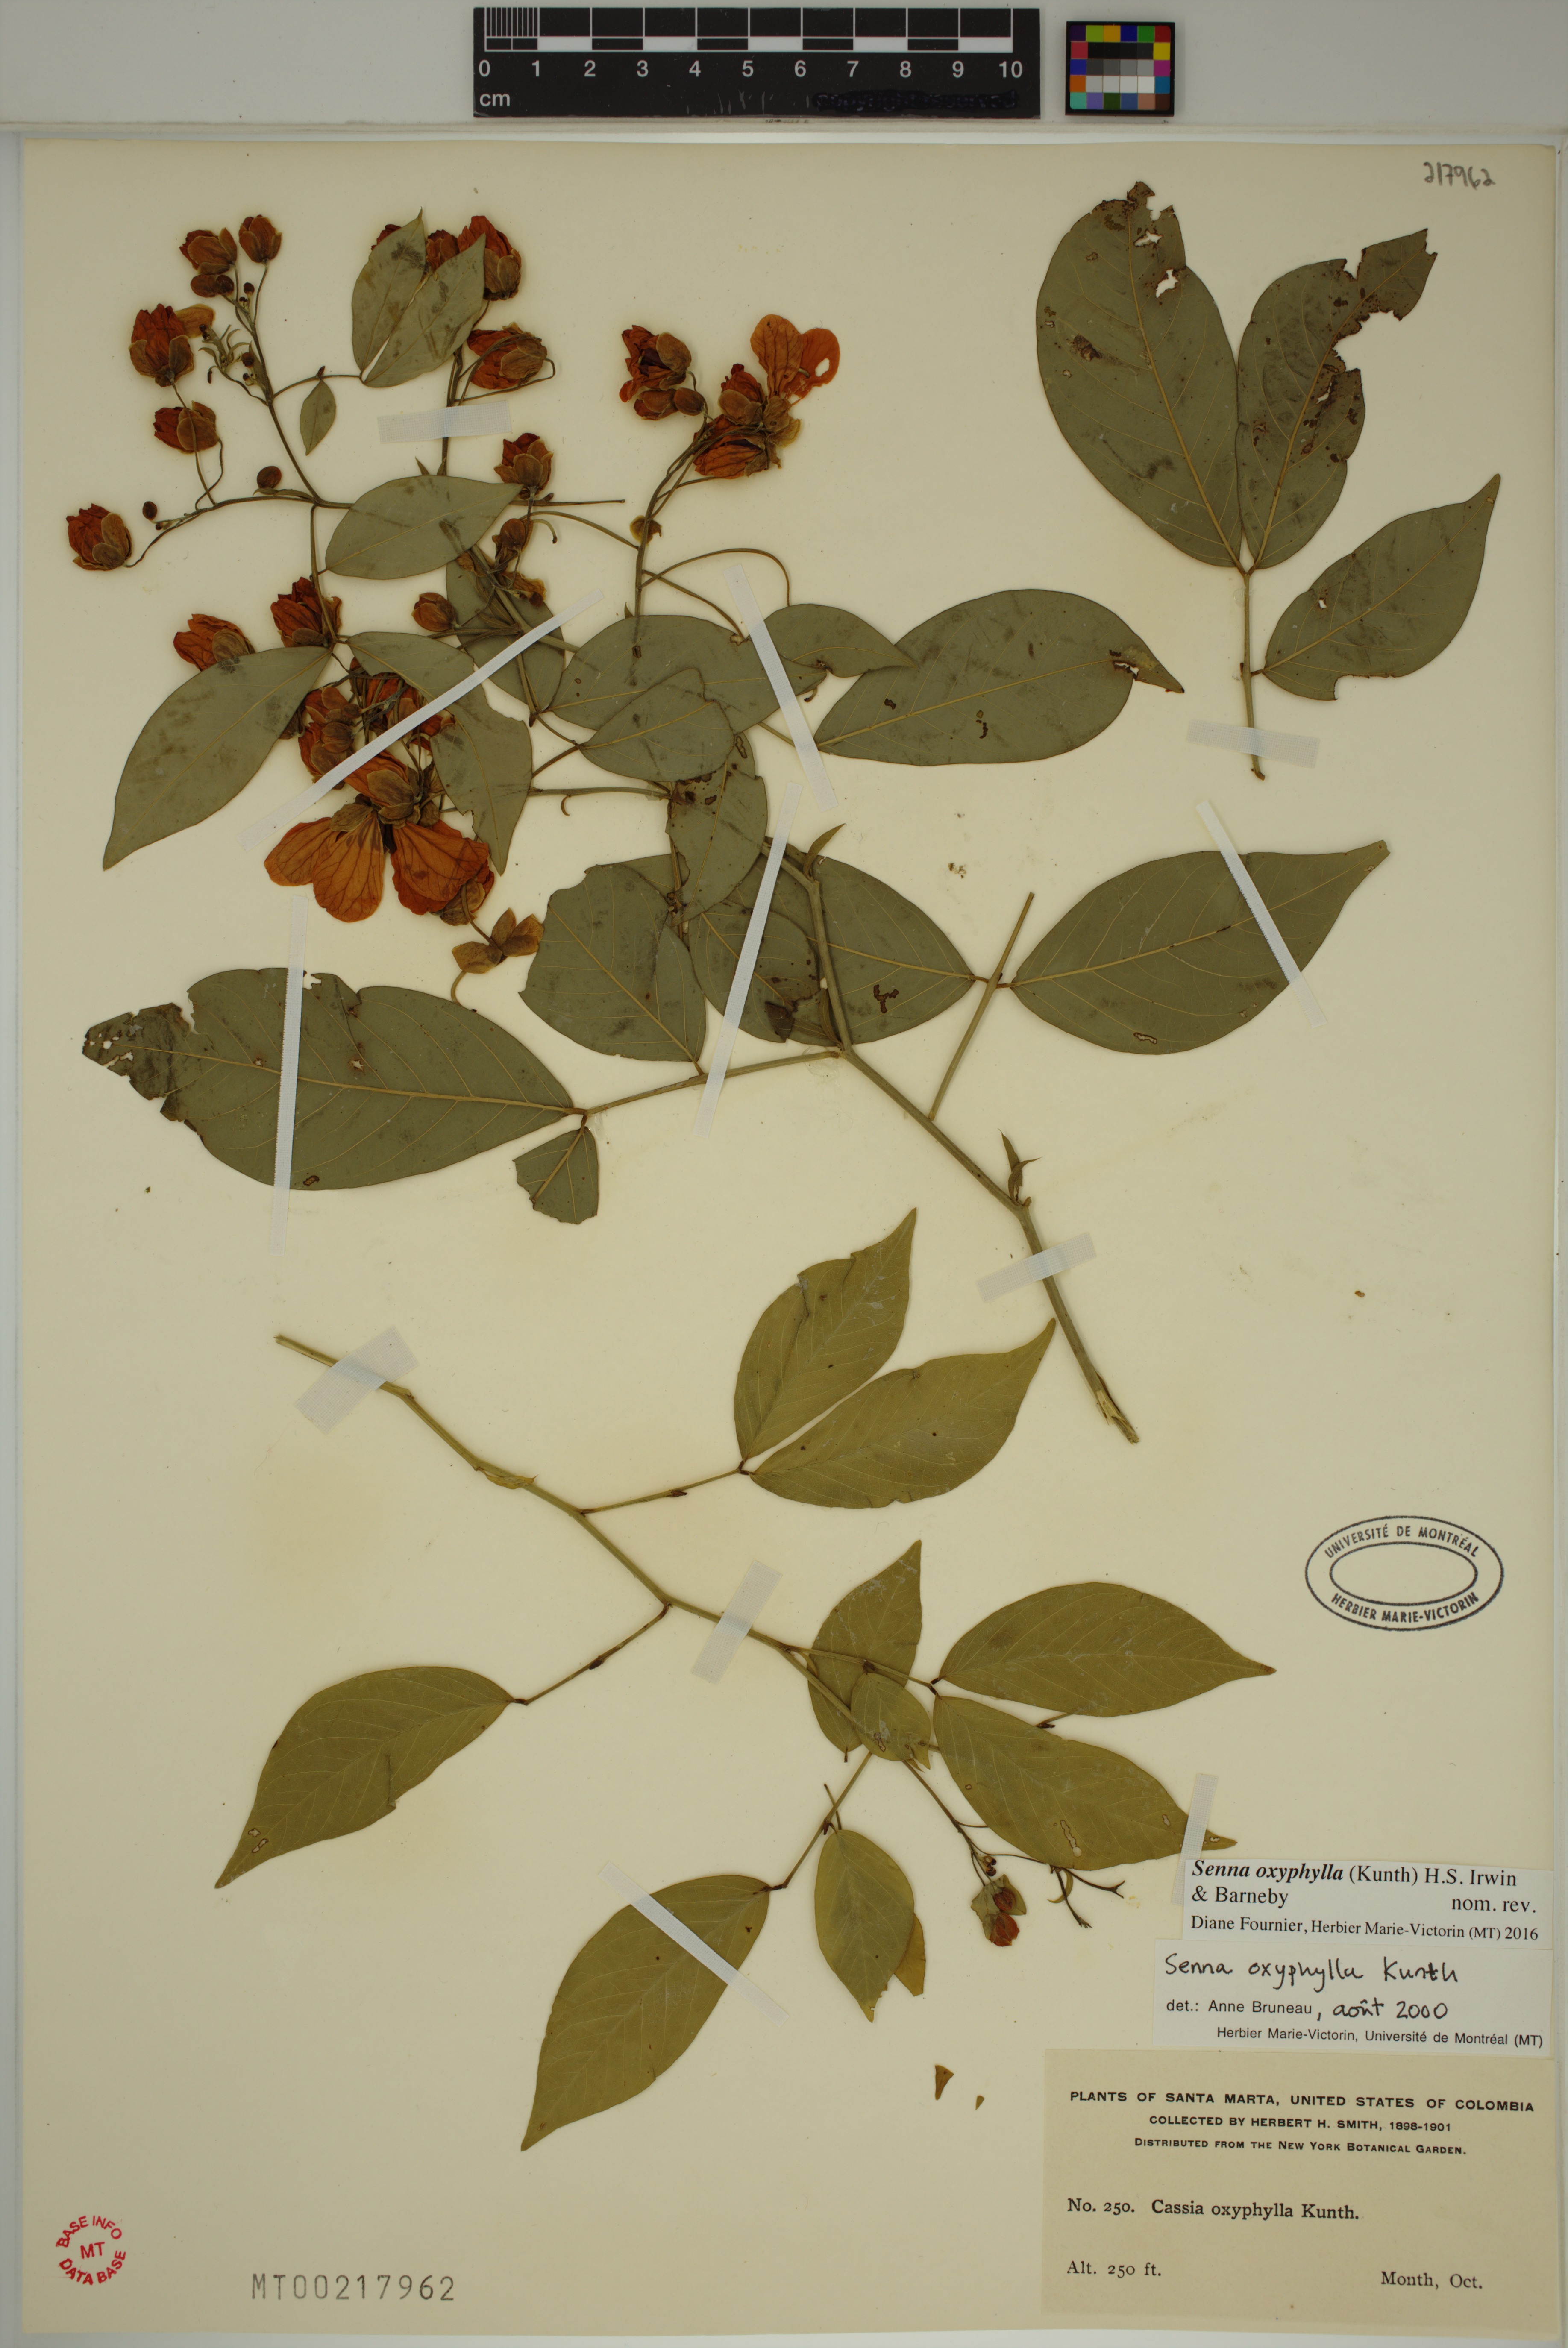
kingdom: Plantae
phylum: Tracheophyta
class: Magnoliopsida
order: Fabales
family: Fabaceae
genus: Senna
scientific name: Senna oxyphylla
